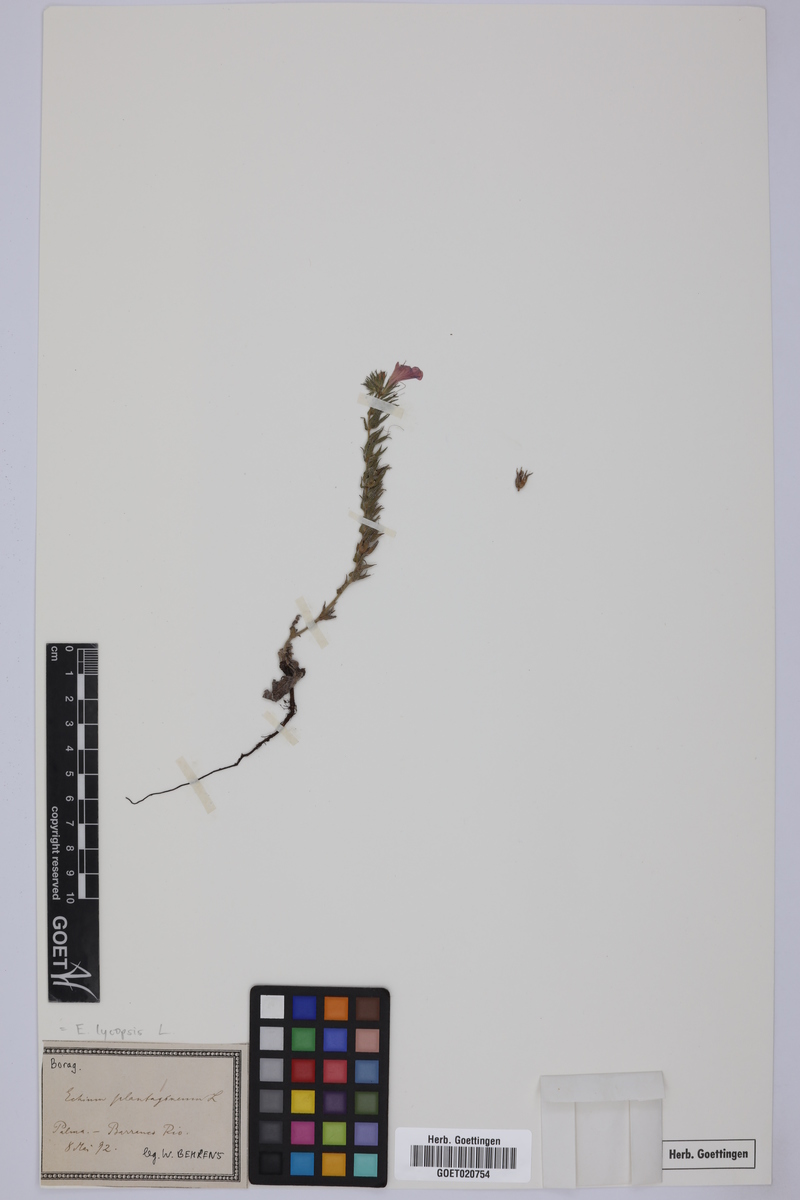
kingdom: Plantae
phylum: Tracheophyta
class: Magnoliopsida
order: Boraginales
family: Boraginaceae
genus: Echium
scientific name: Echium plantagineum
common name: Purple viper's-bugloss
